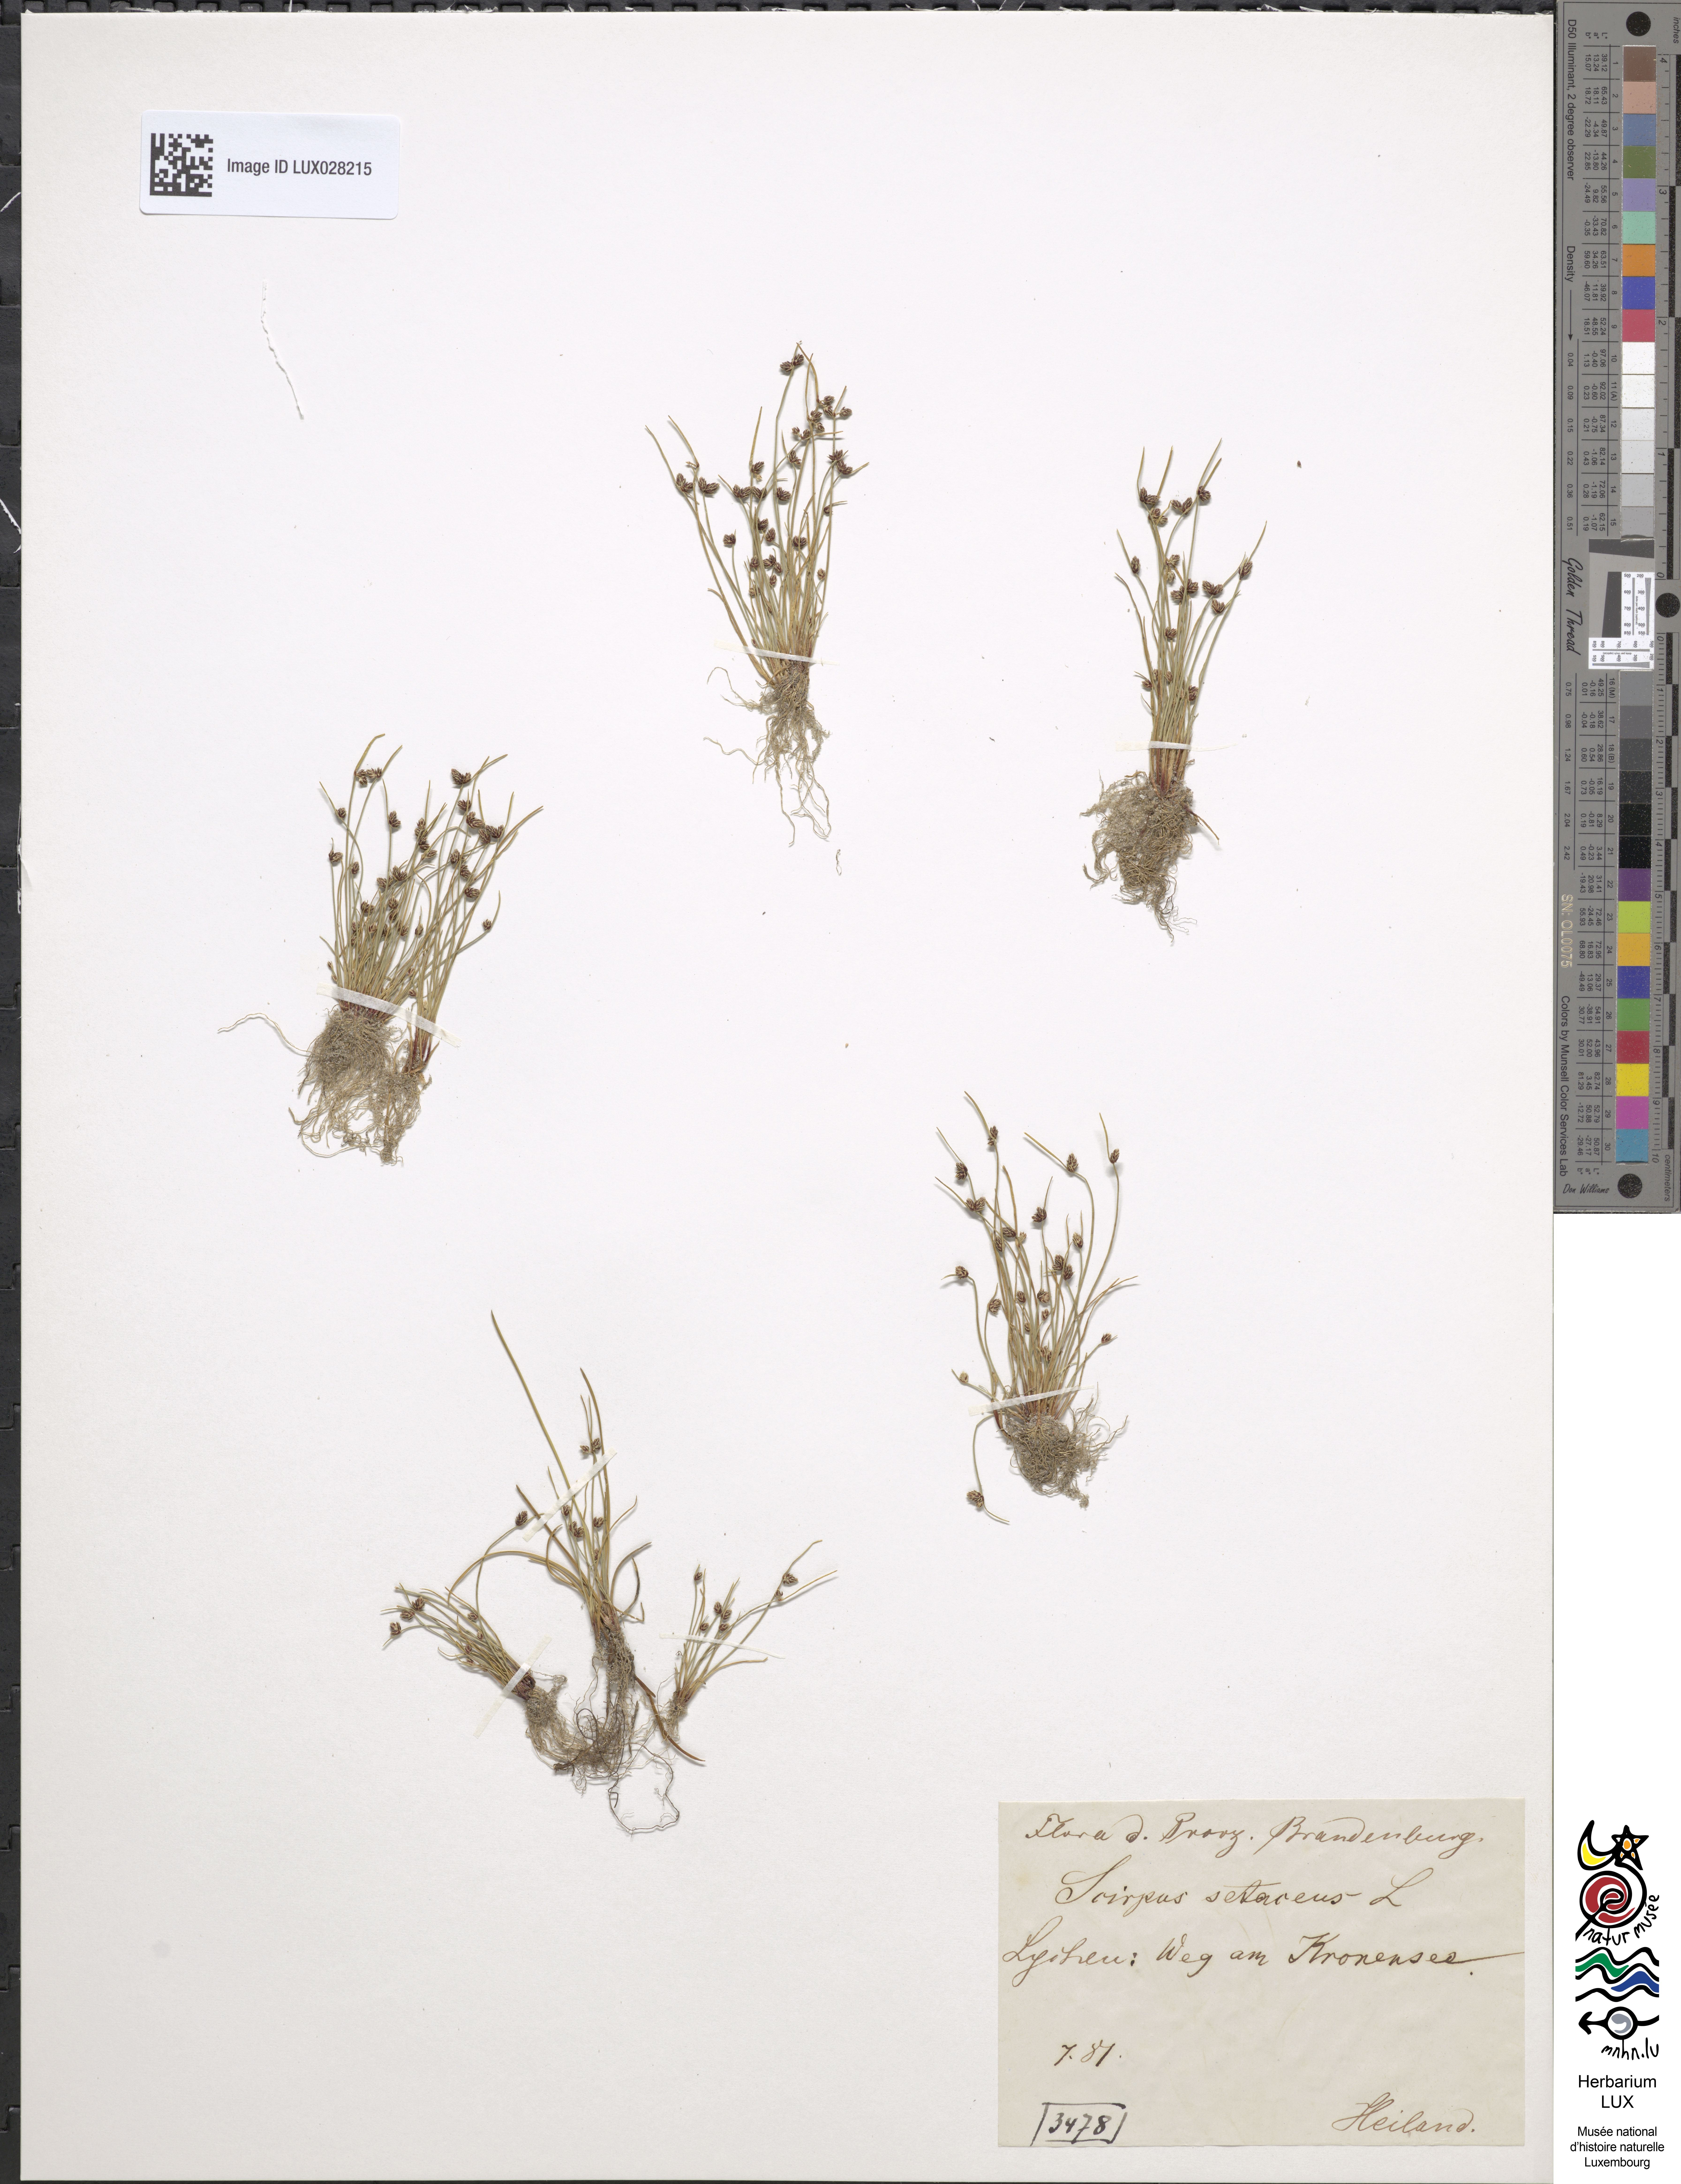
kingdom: Plantae
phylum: Tracheophyta
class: Liliopsida
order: Poales
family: Cyperaceae
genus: Isolepis
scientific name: Isolepis setacea
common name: Bristle club-rush
